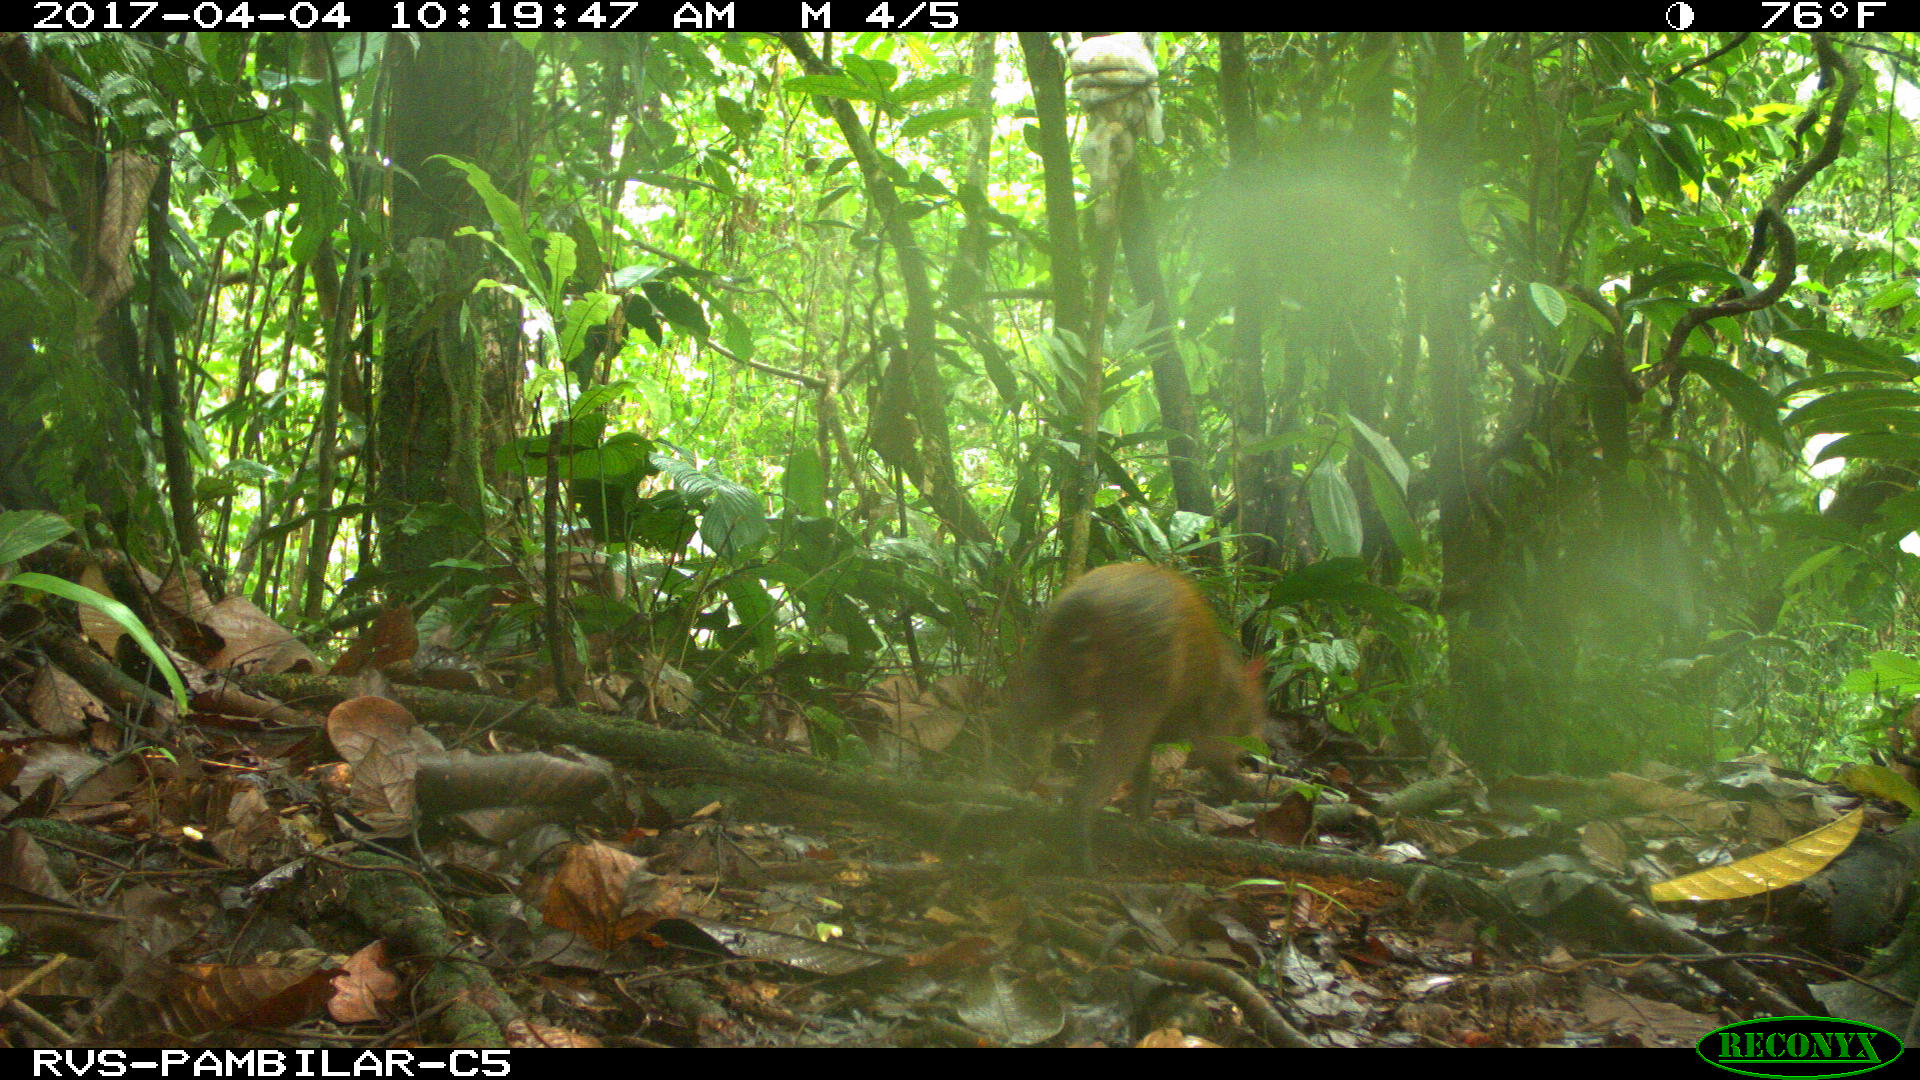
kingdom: Animalia
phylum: Chordata
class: Mammalia
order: Rodentia
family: Dasyproctidae
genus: Dasyprocta
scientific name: Dasyprocta punctata
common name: Central american agouti
